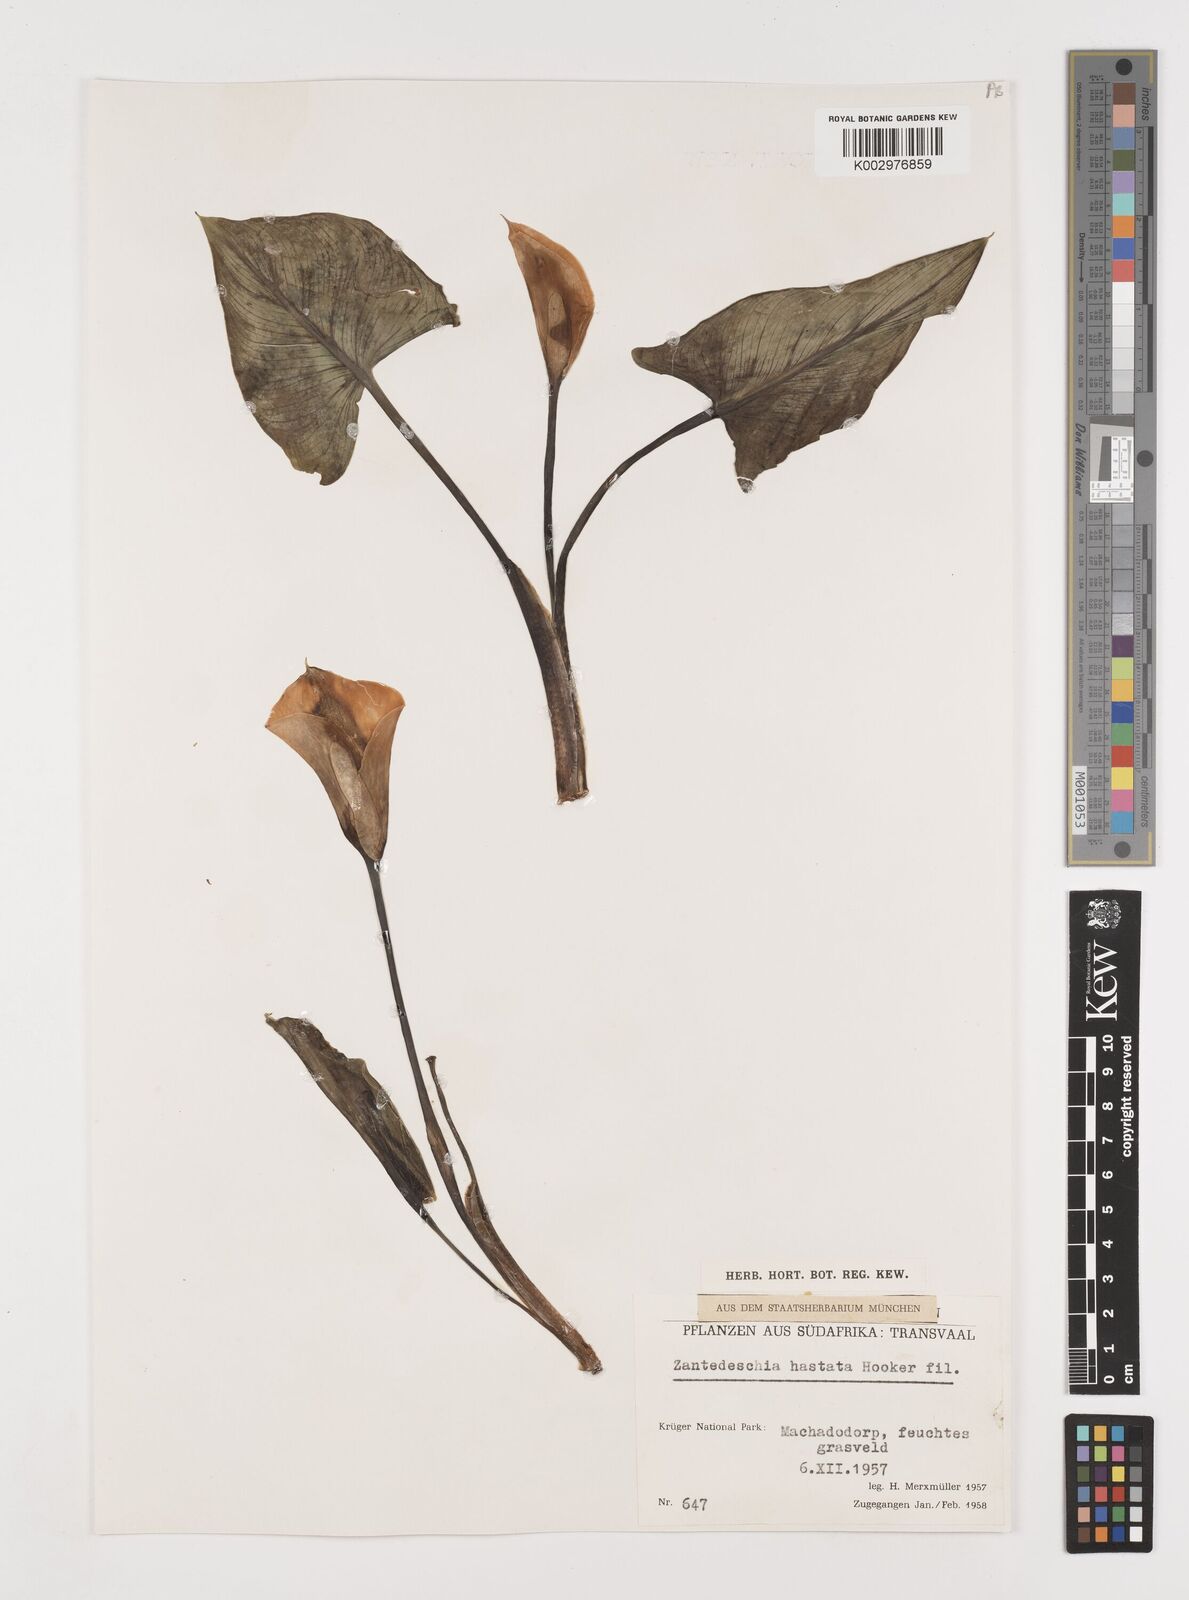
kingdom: Plantae
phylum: Tracheophyta
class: Liliopsida
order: Alismatales
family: Araceae
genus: Zantedeschia
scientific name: Zantedeschia albomaculata
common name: Spotted calla lily
